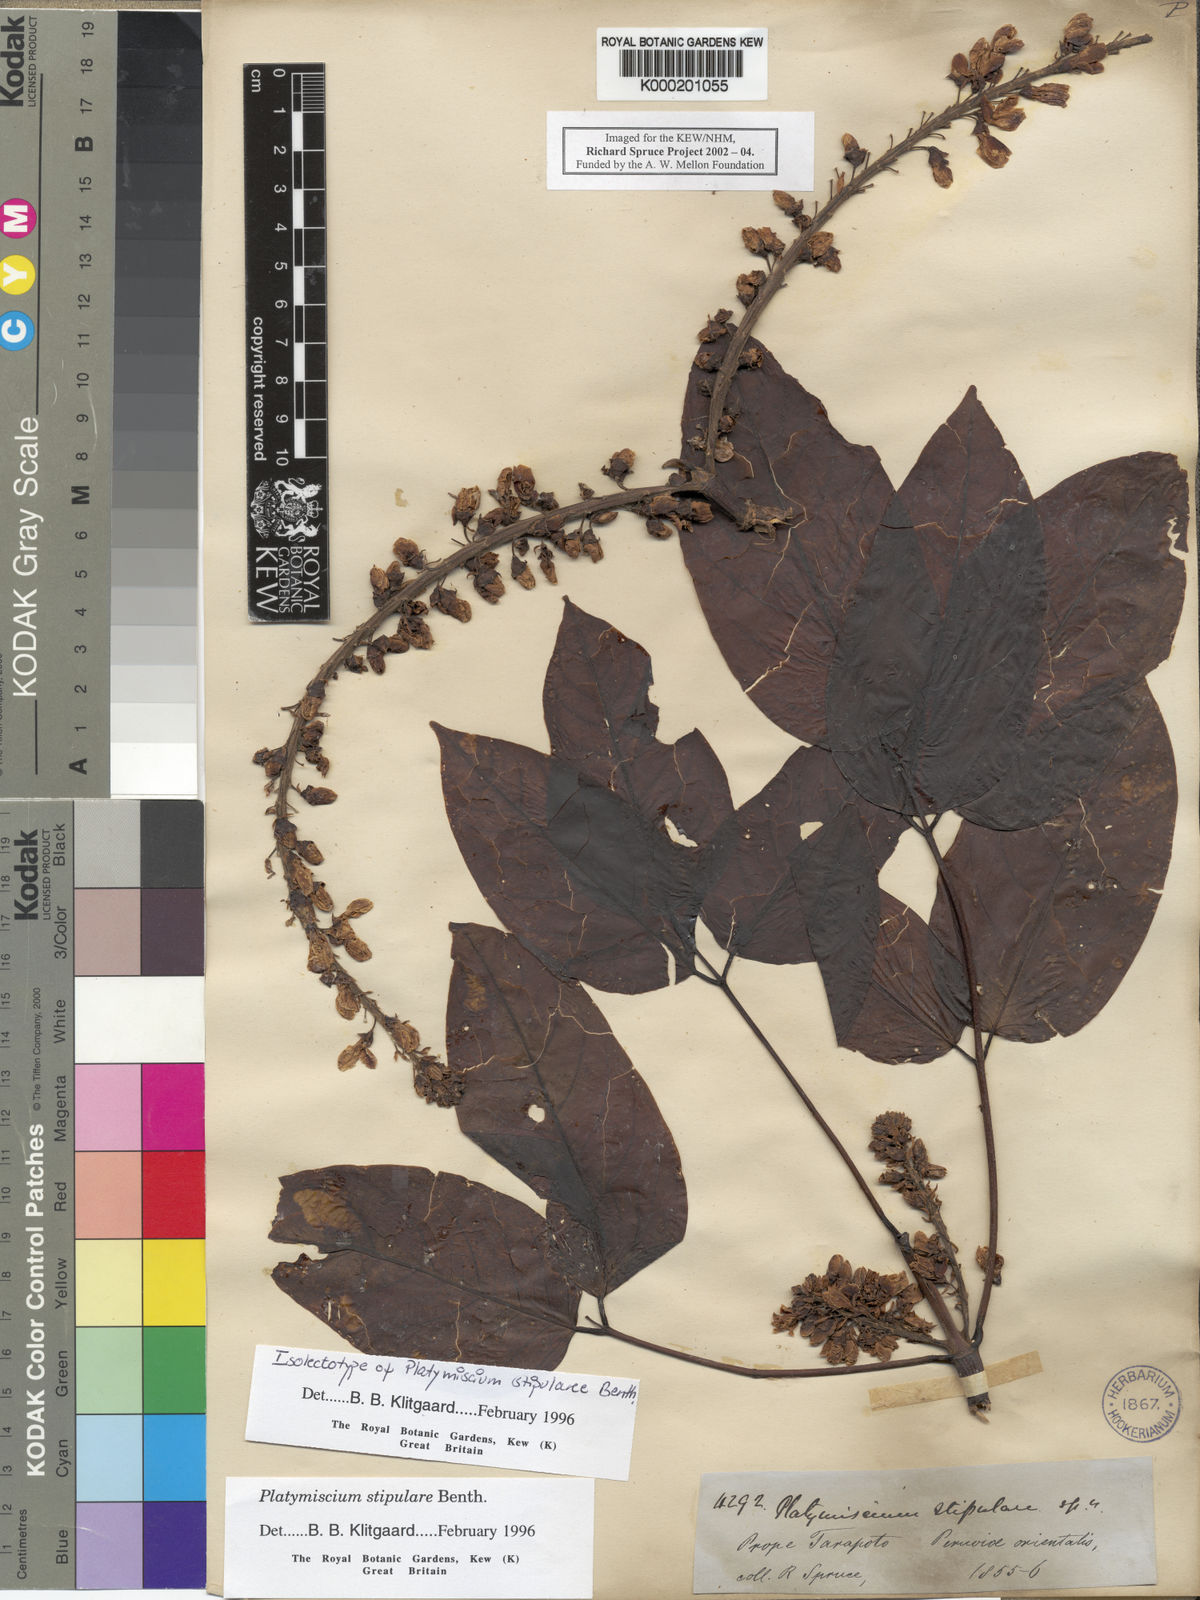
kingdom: Plantae
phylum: Tracheophyta
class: Magnoliopsida
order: Fabales
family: Fabaceae
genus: Platymiscium
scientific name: Platymiscium stipulare
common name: Legume
